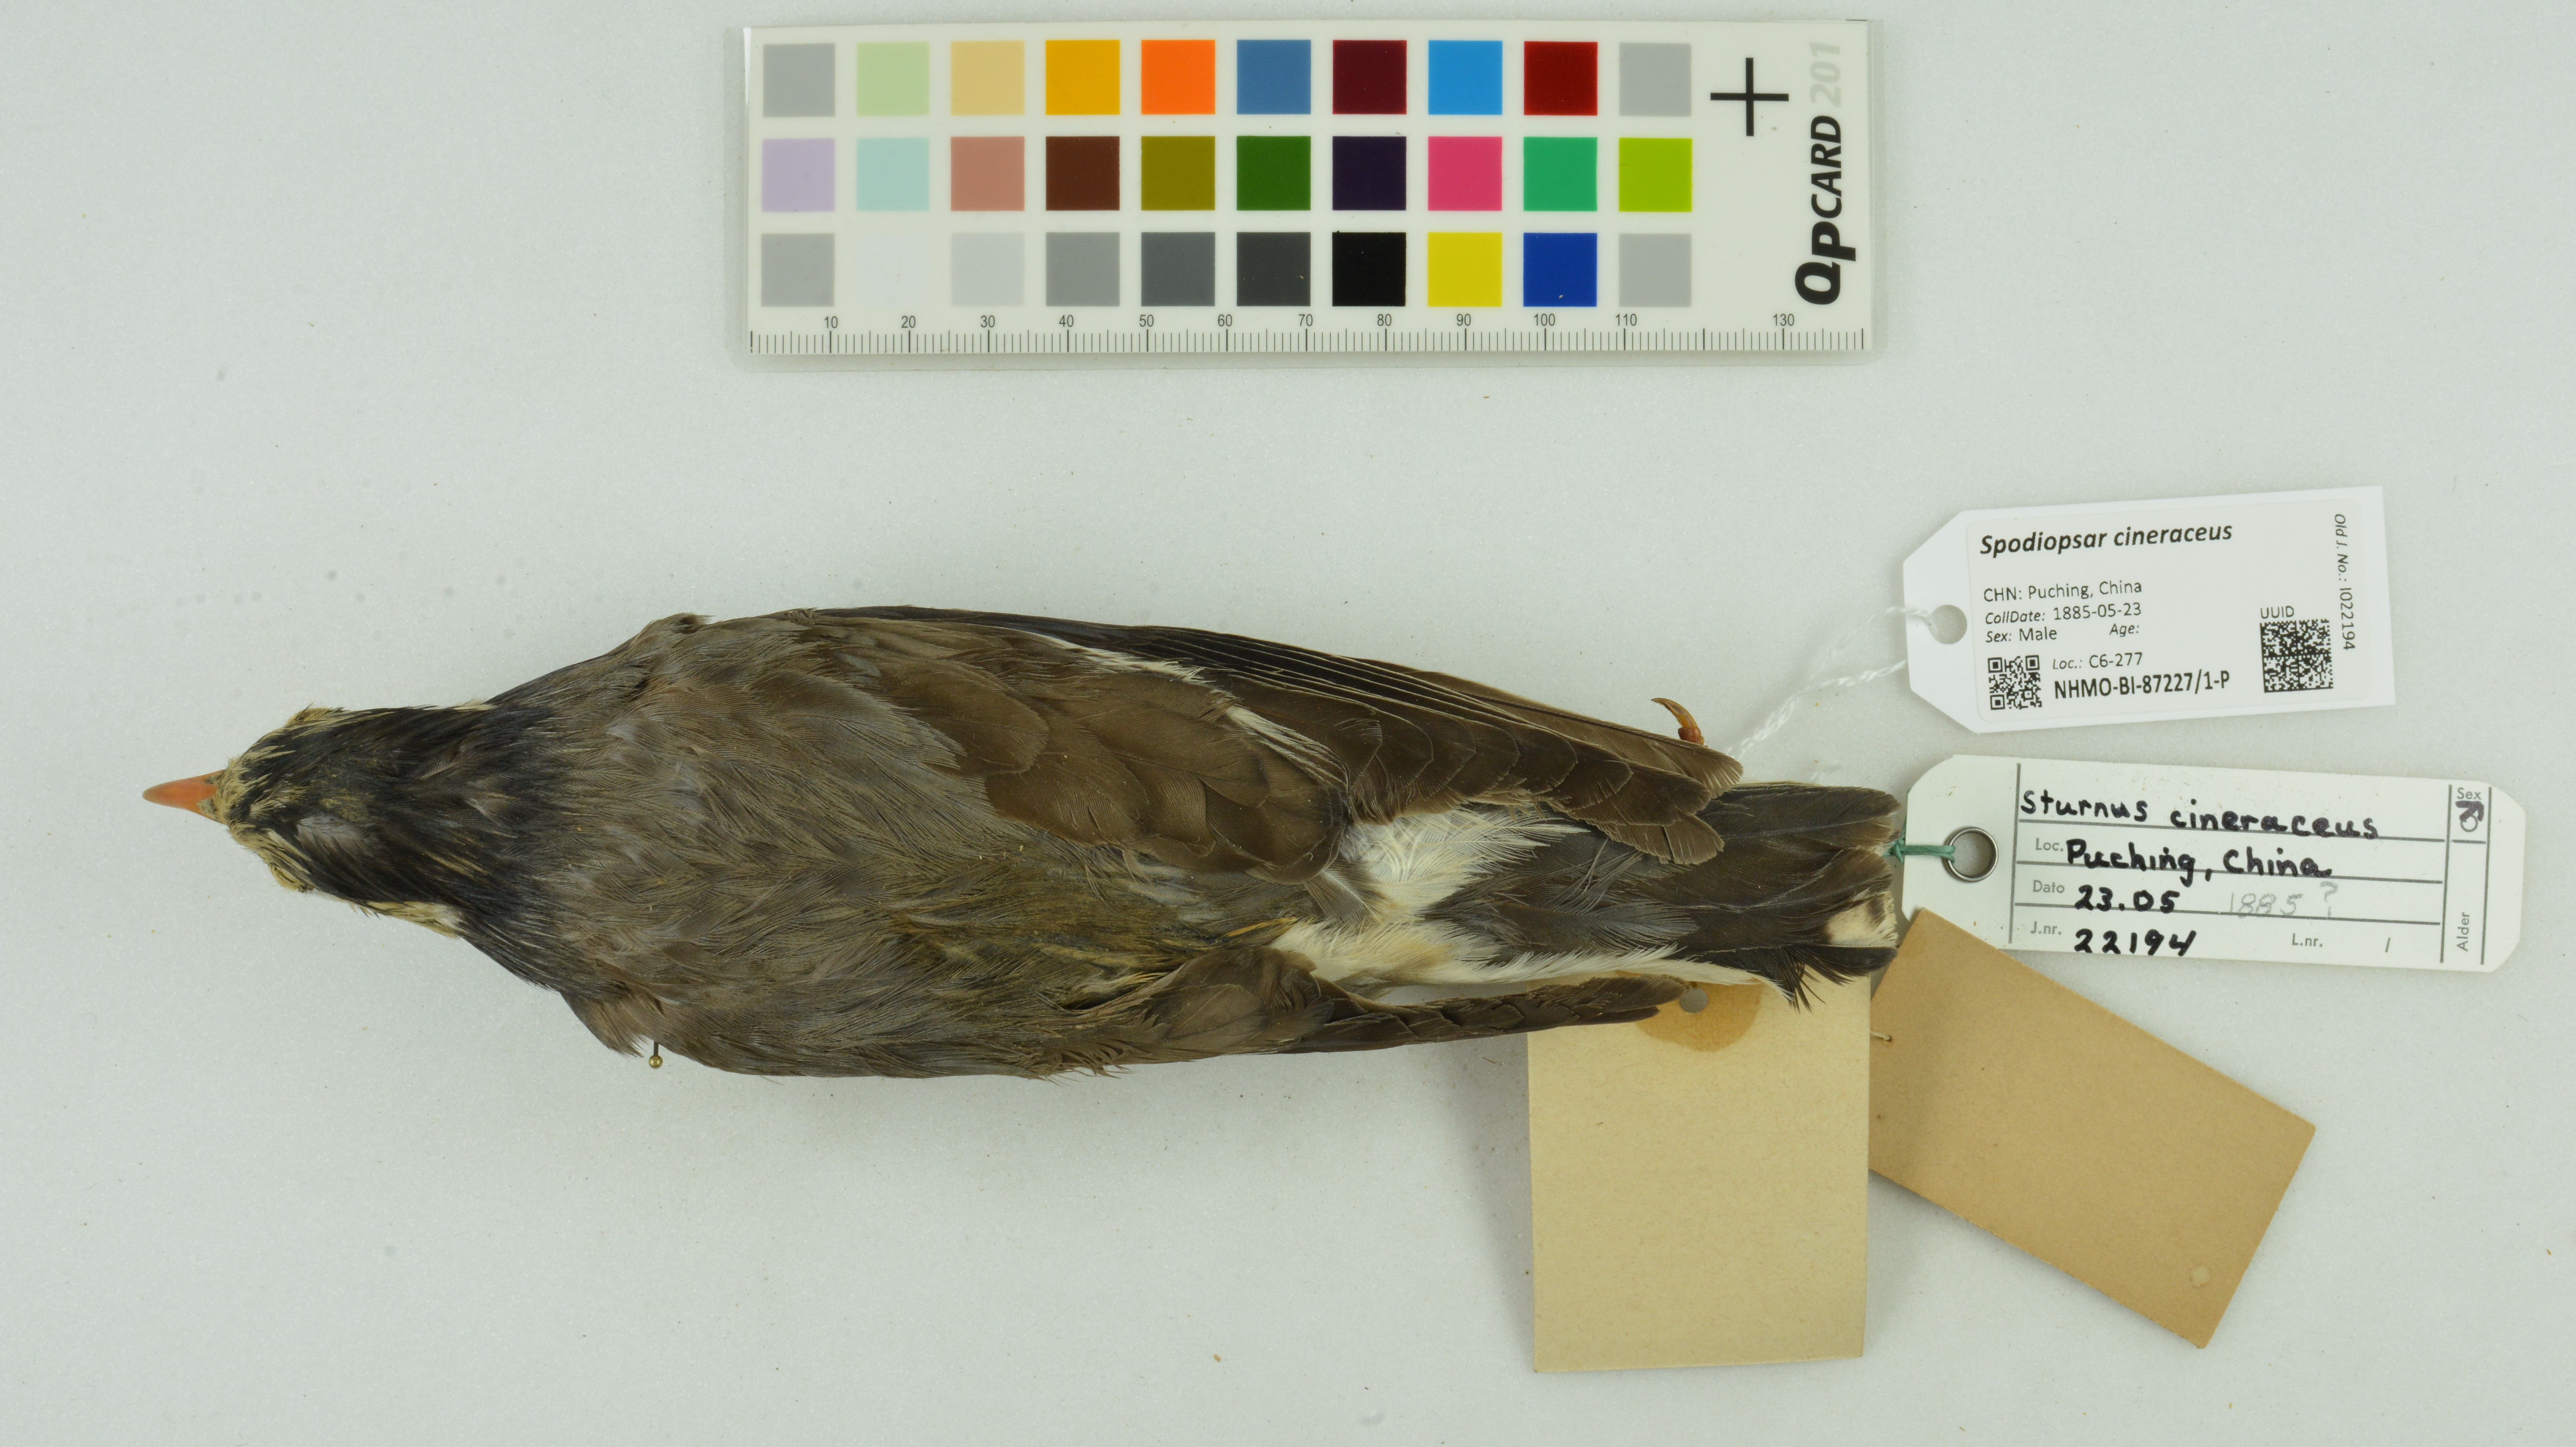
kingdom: Animalia
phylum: Chordata
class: Aves
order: Passeriformes
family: Sturnidae
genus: Spodiopsar
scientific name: Spodiopsar cineraceus
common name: White-cheeked starling
